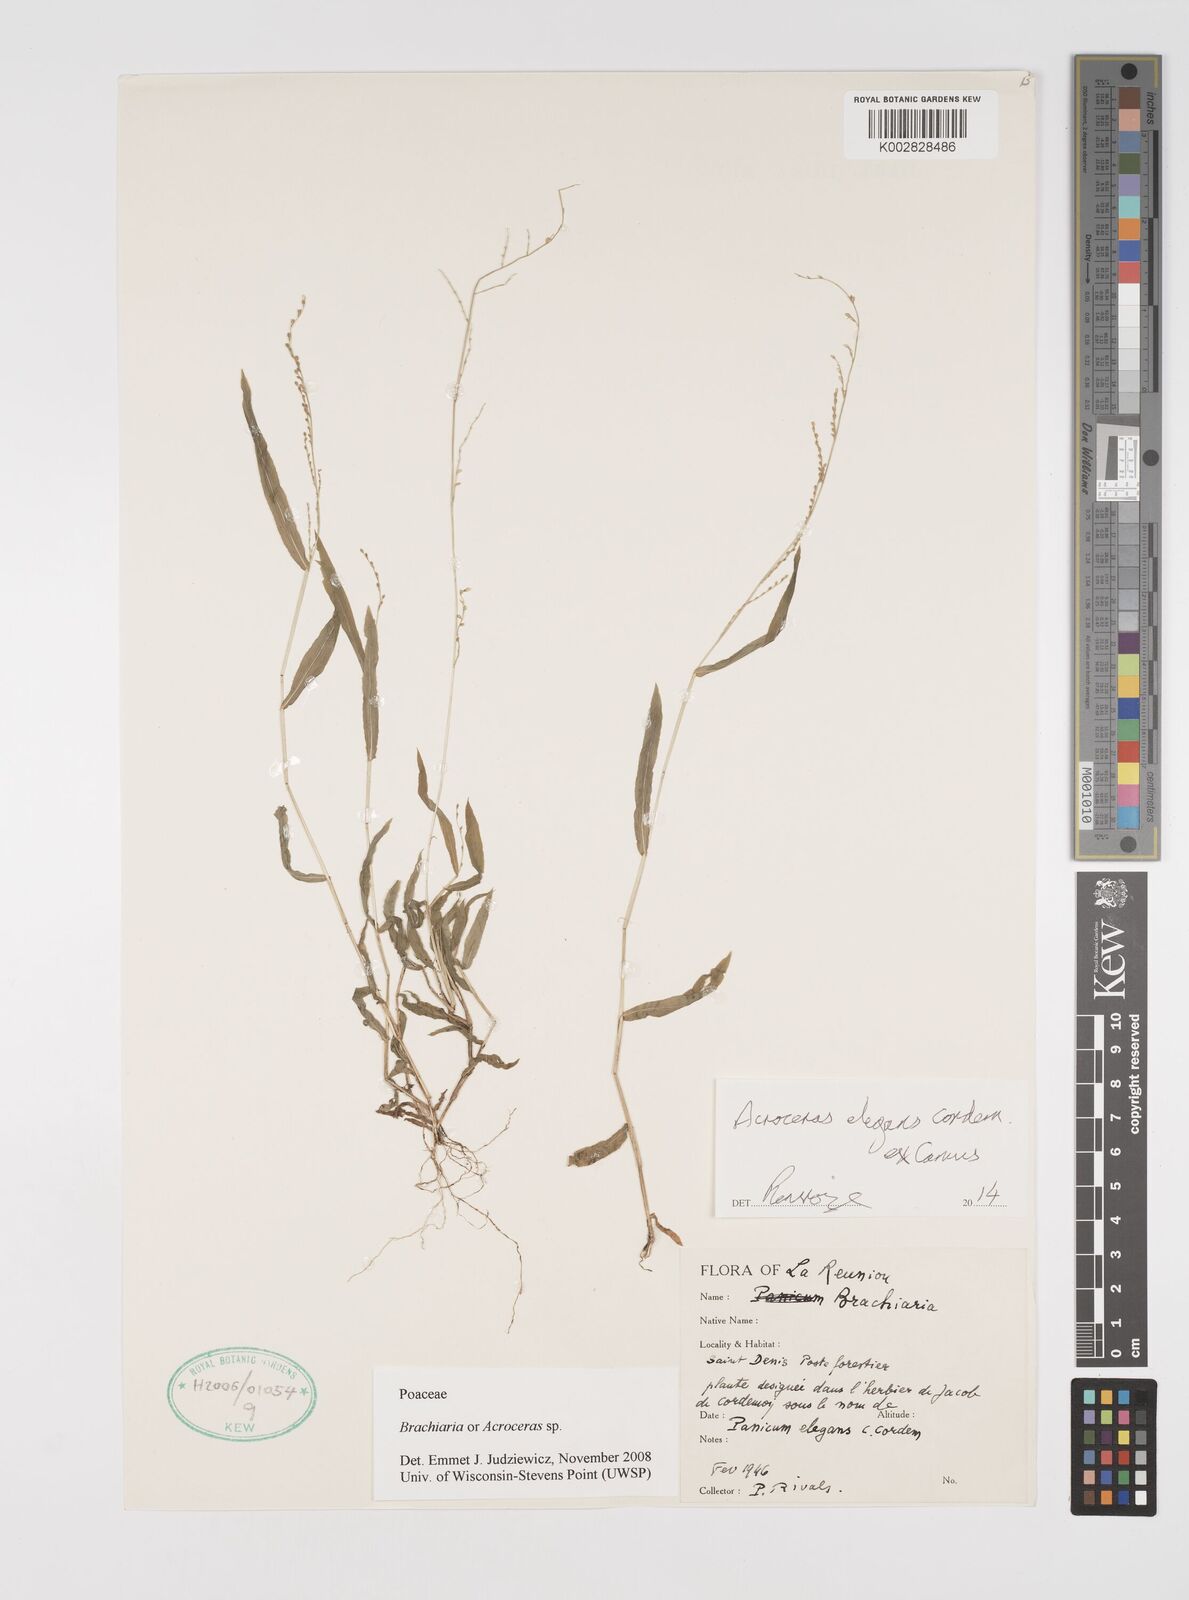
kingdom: Plantae
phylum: Tracheophyta
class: Liliopsida
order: Poales
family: Poaceae
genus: Acroceras
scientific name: Acroceras elegans
